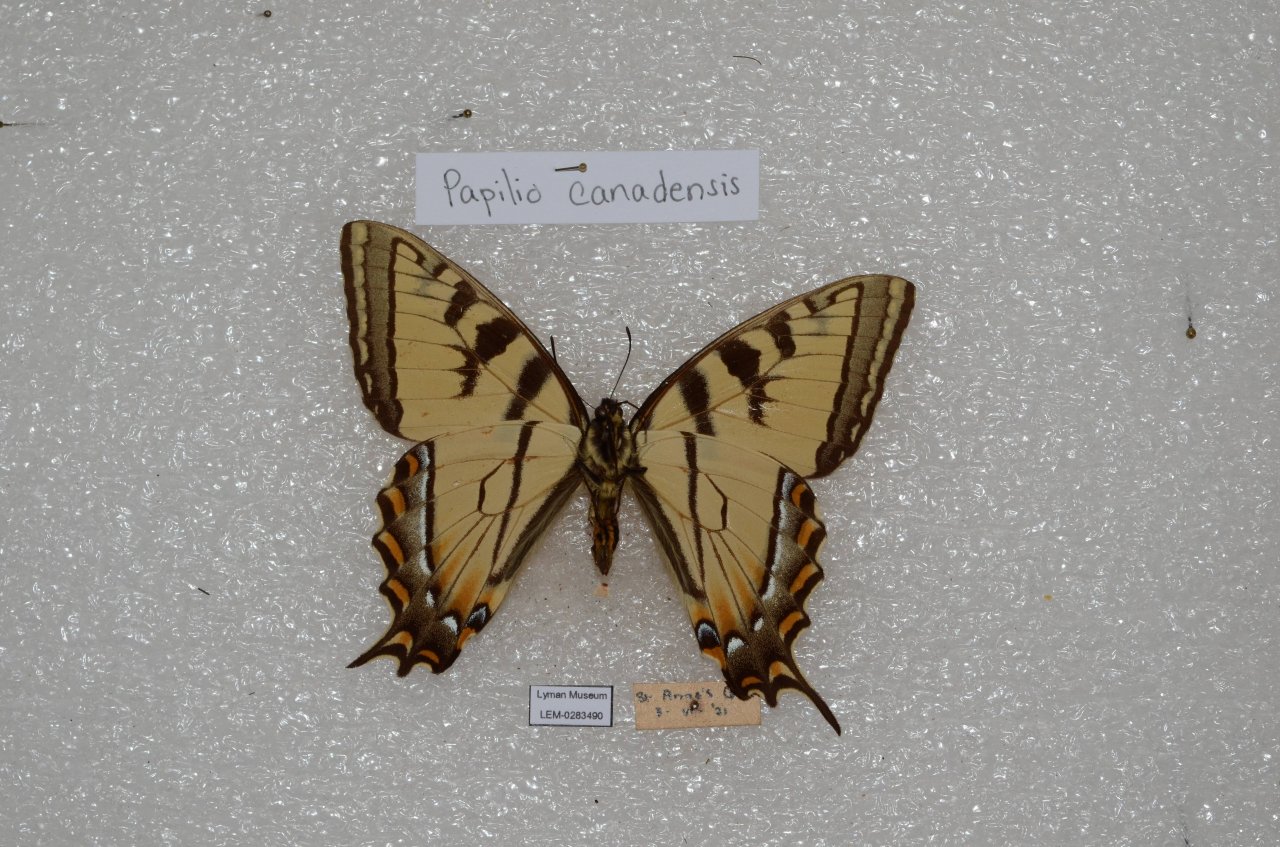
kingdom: Animalia
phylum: Arthropoda
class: Insecta
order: Lepidoptera
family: Papilionidae
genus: Pterourus
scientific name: Pterourus canadensis
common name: Canadian Tiger Swallowtail
